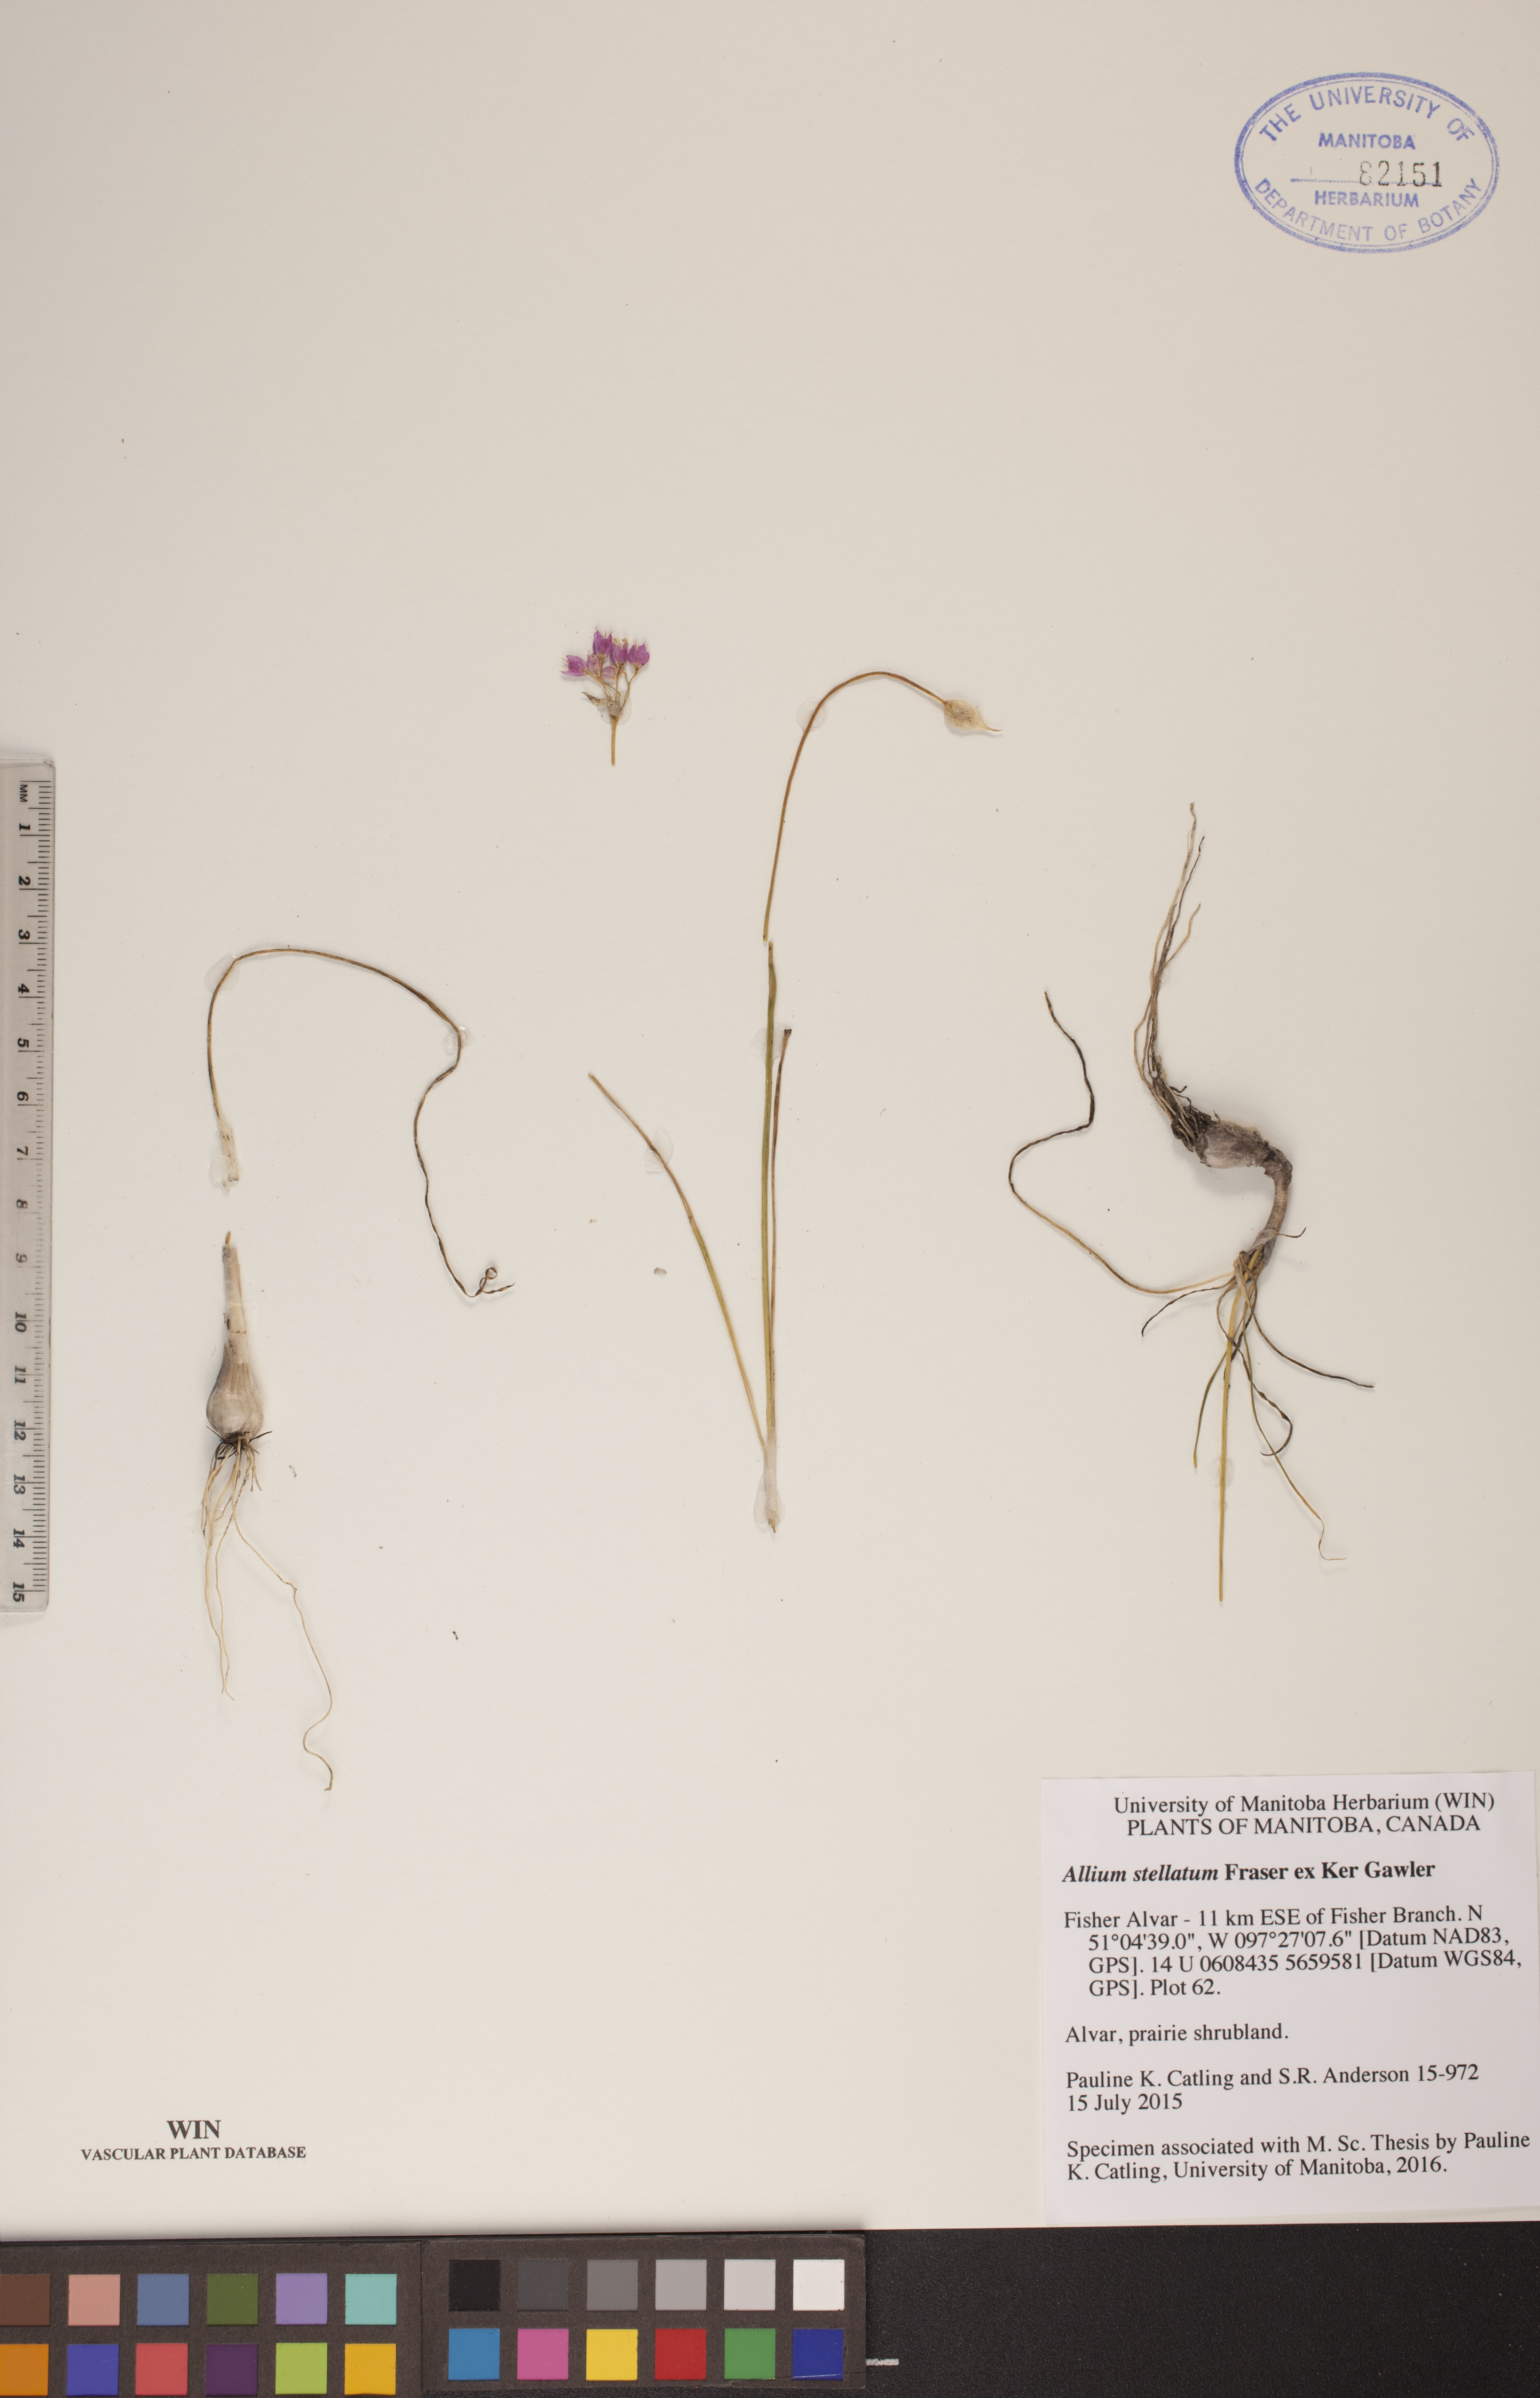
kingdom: Plantae
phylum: Tracheophyta
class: Liliopsida
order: Asparagales
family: Amaryllidaceae
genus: Allium
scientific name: Allium stellatum
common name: Autumn onion
